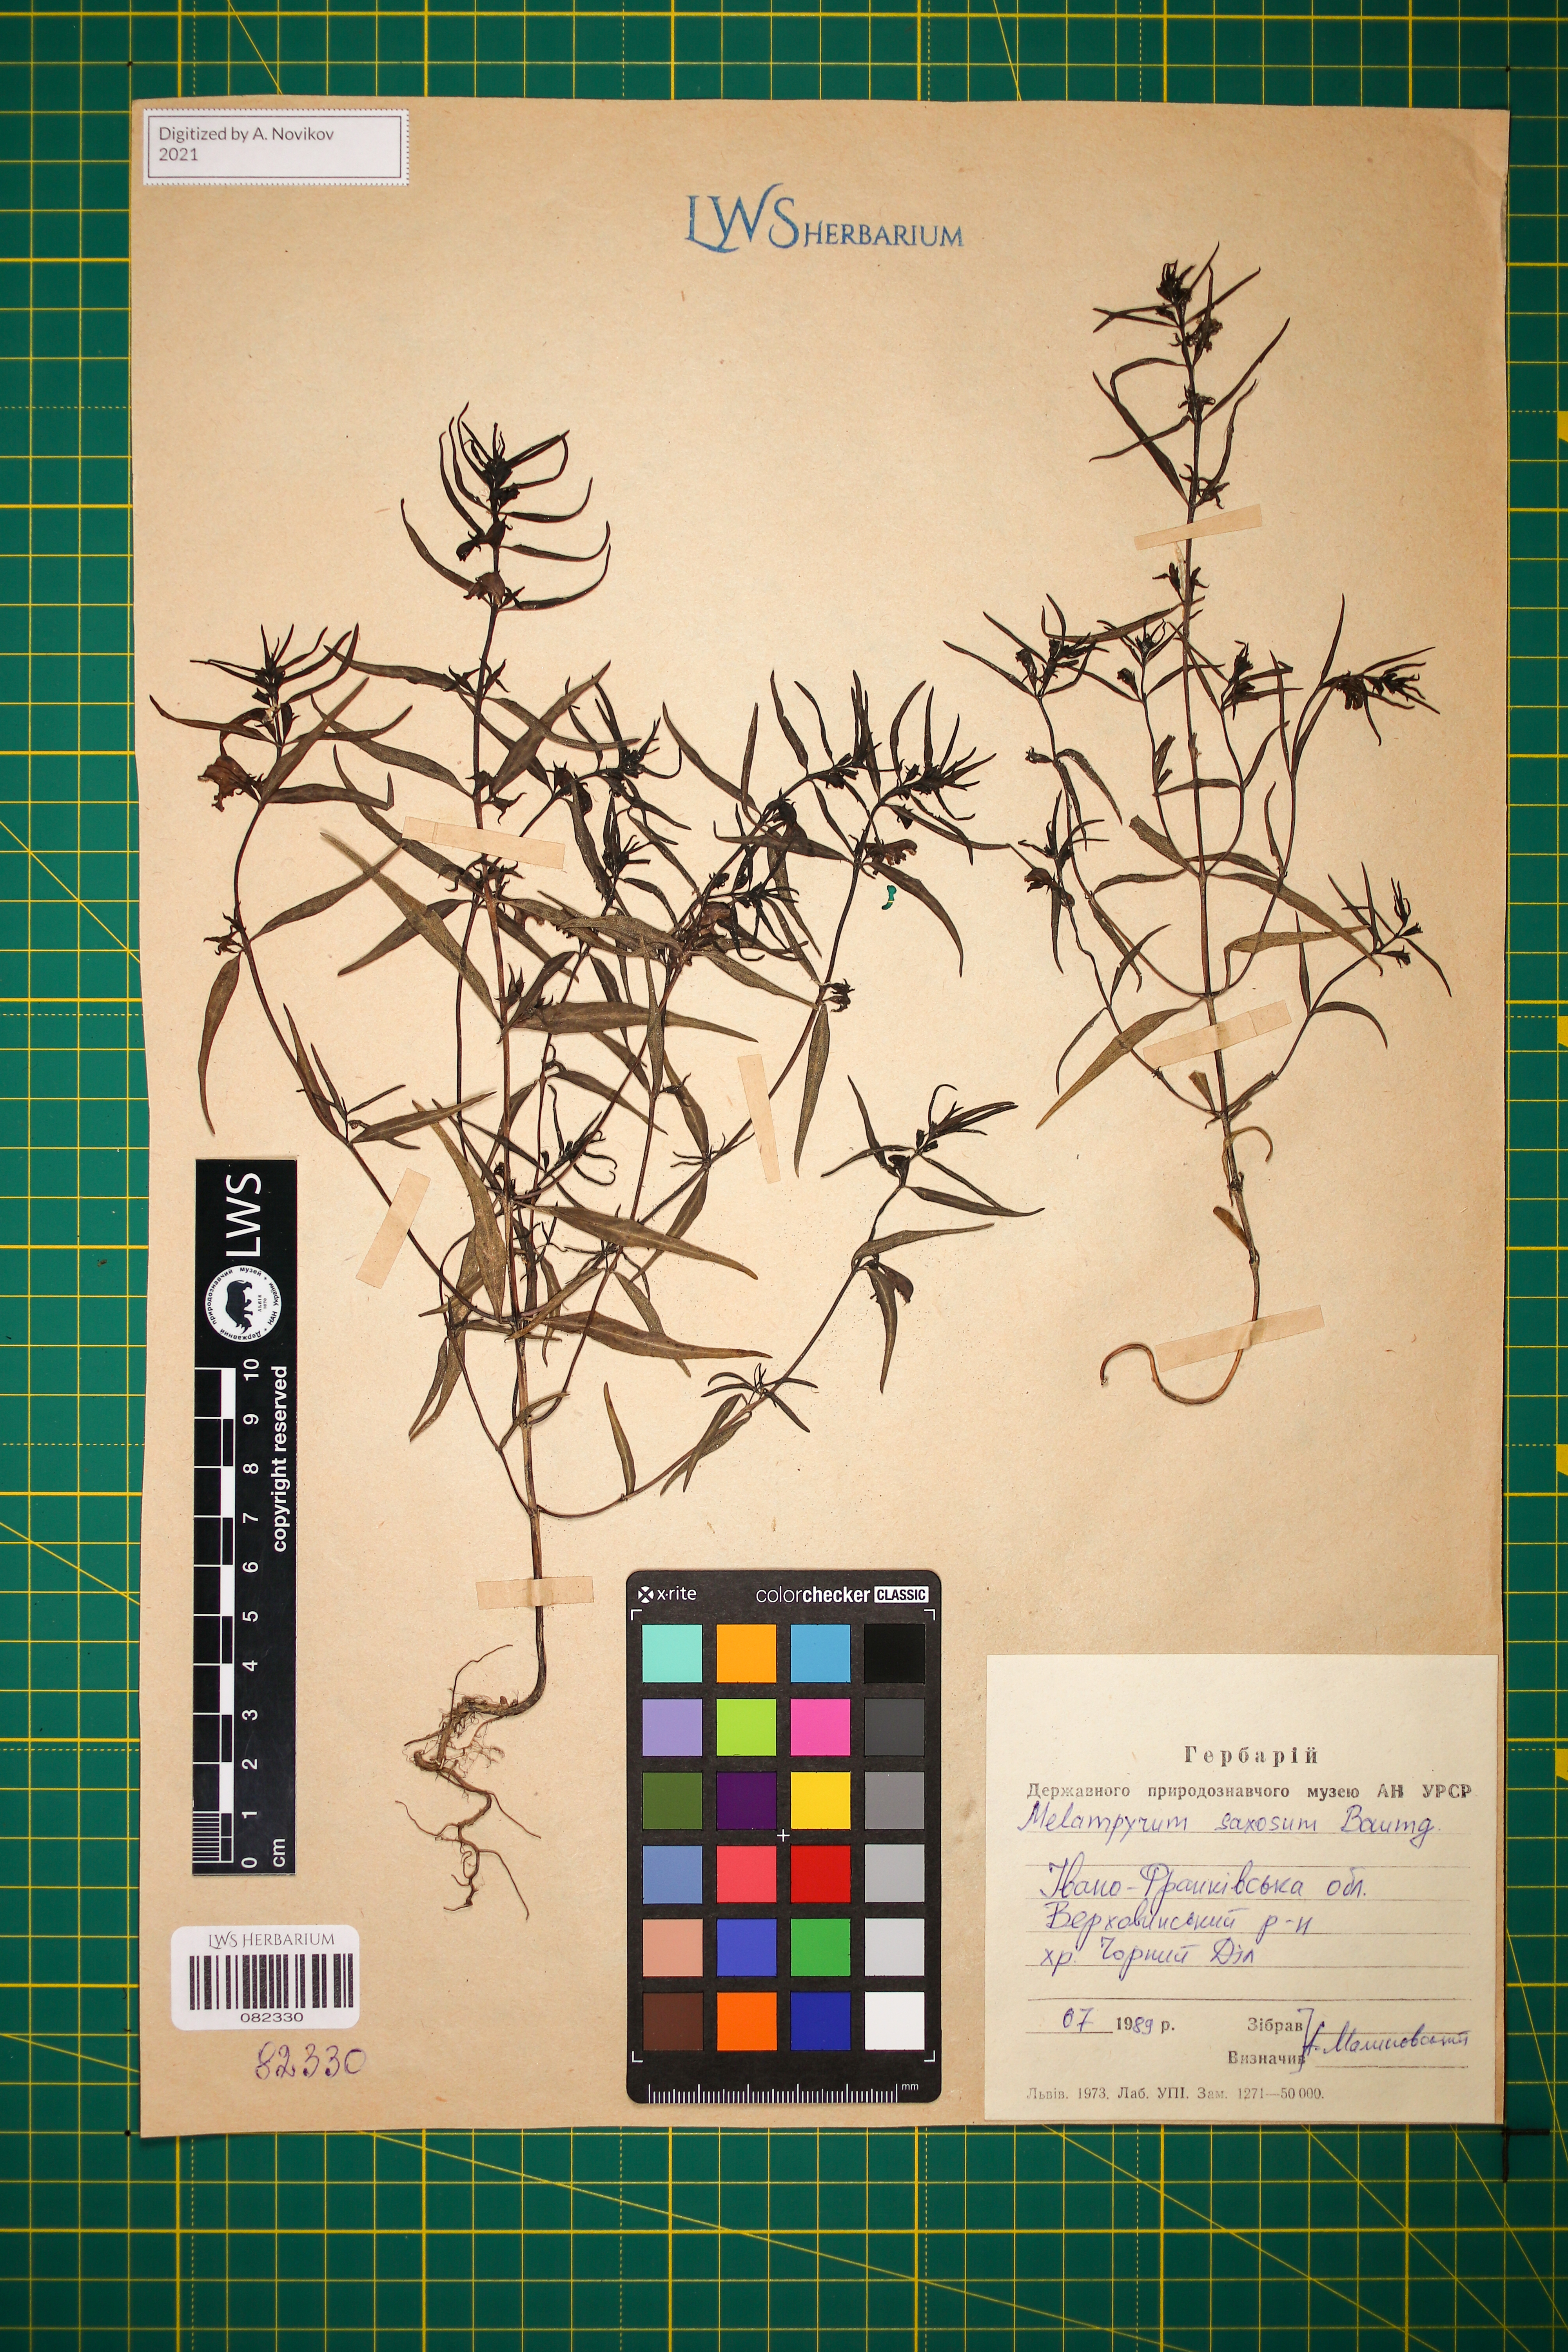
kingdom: Plantae
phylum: Tracheophyta
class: Magnoliopsida
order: Lamiales
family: Orobanchaceae
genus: Melampyrum
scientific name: Melampyrum saxosum
